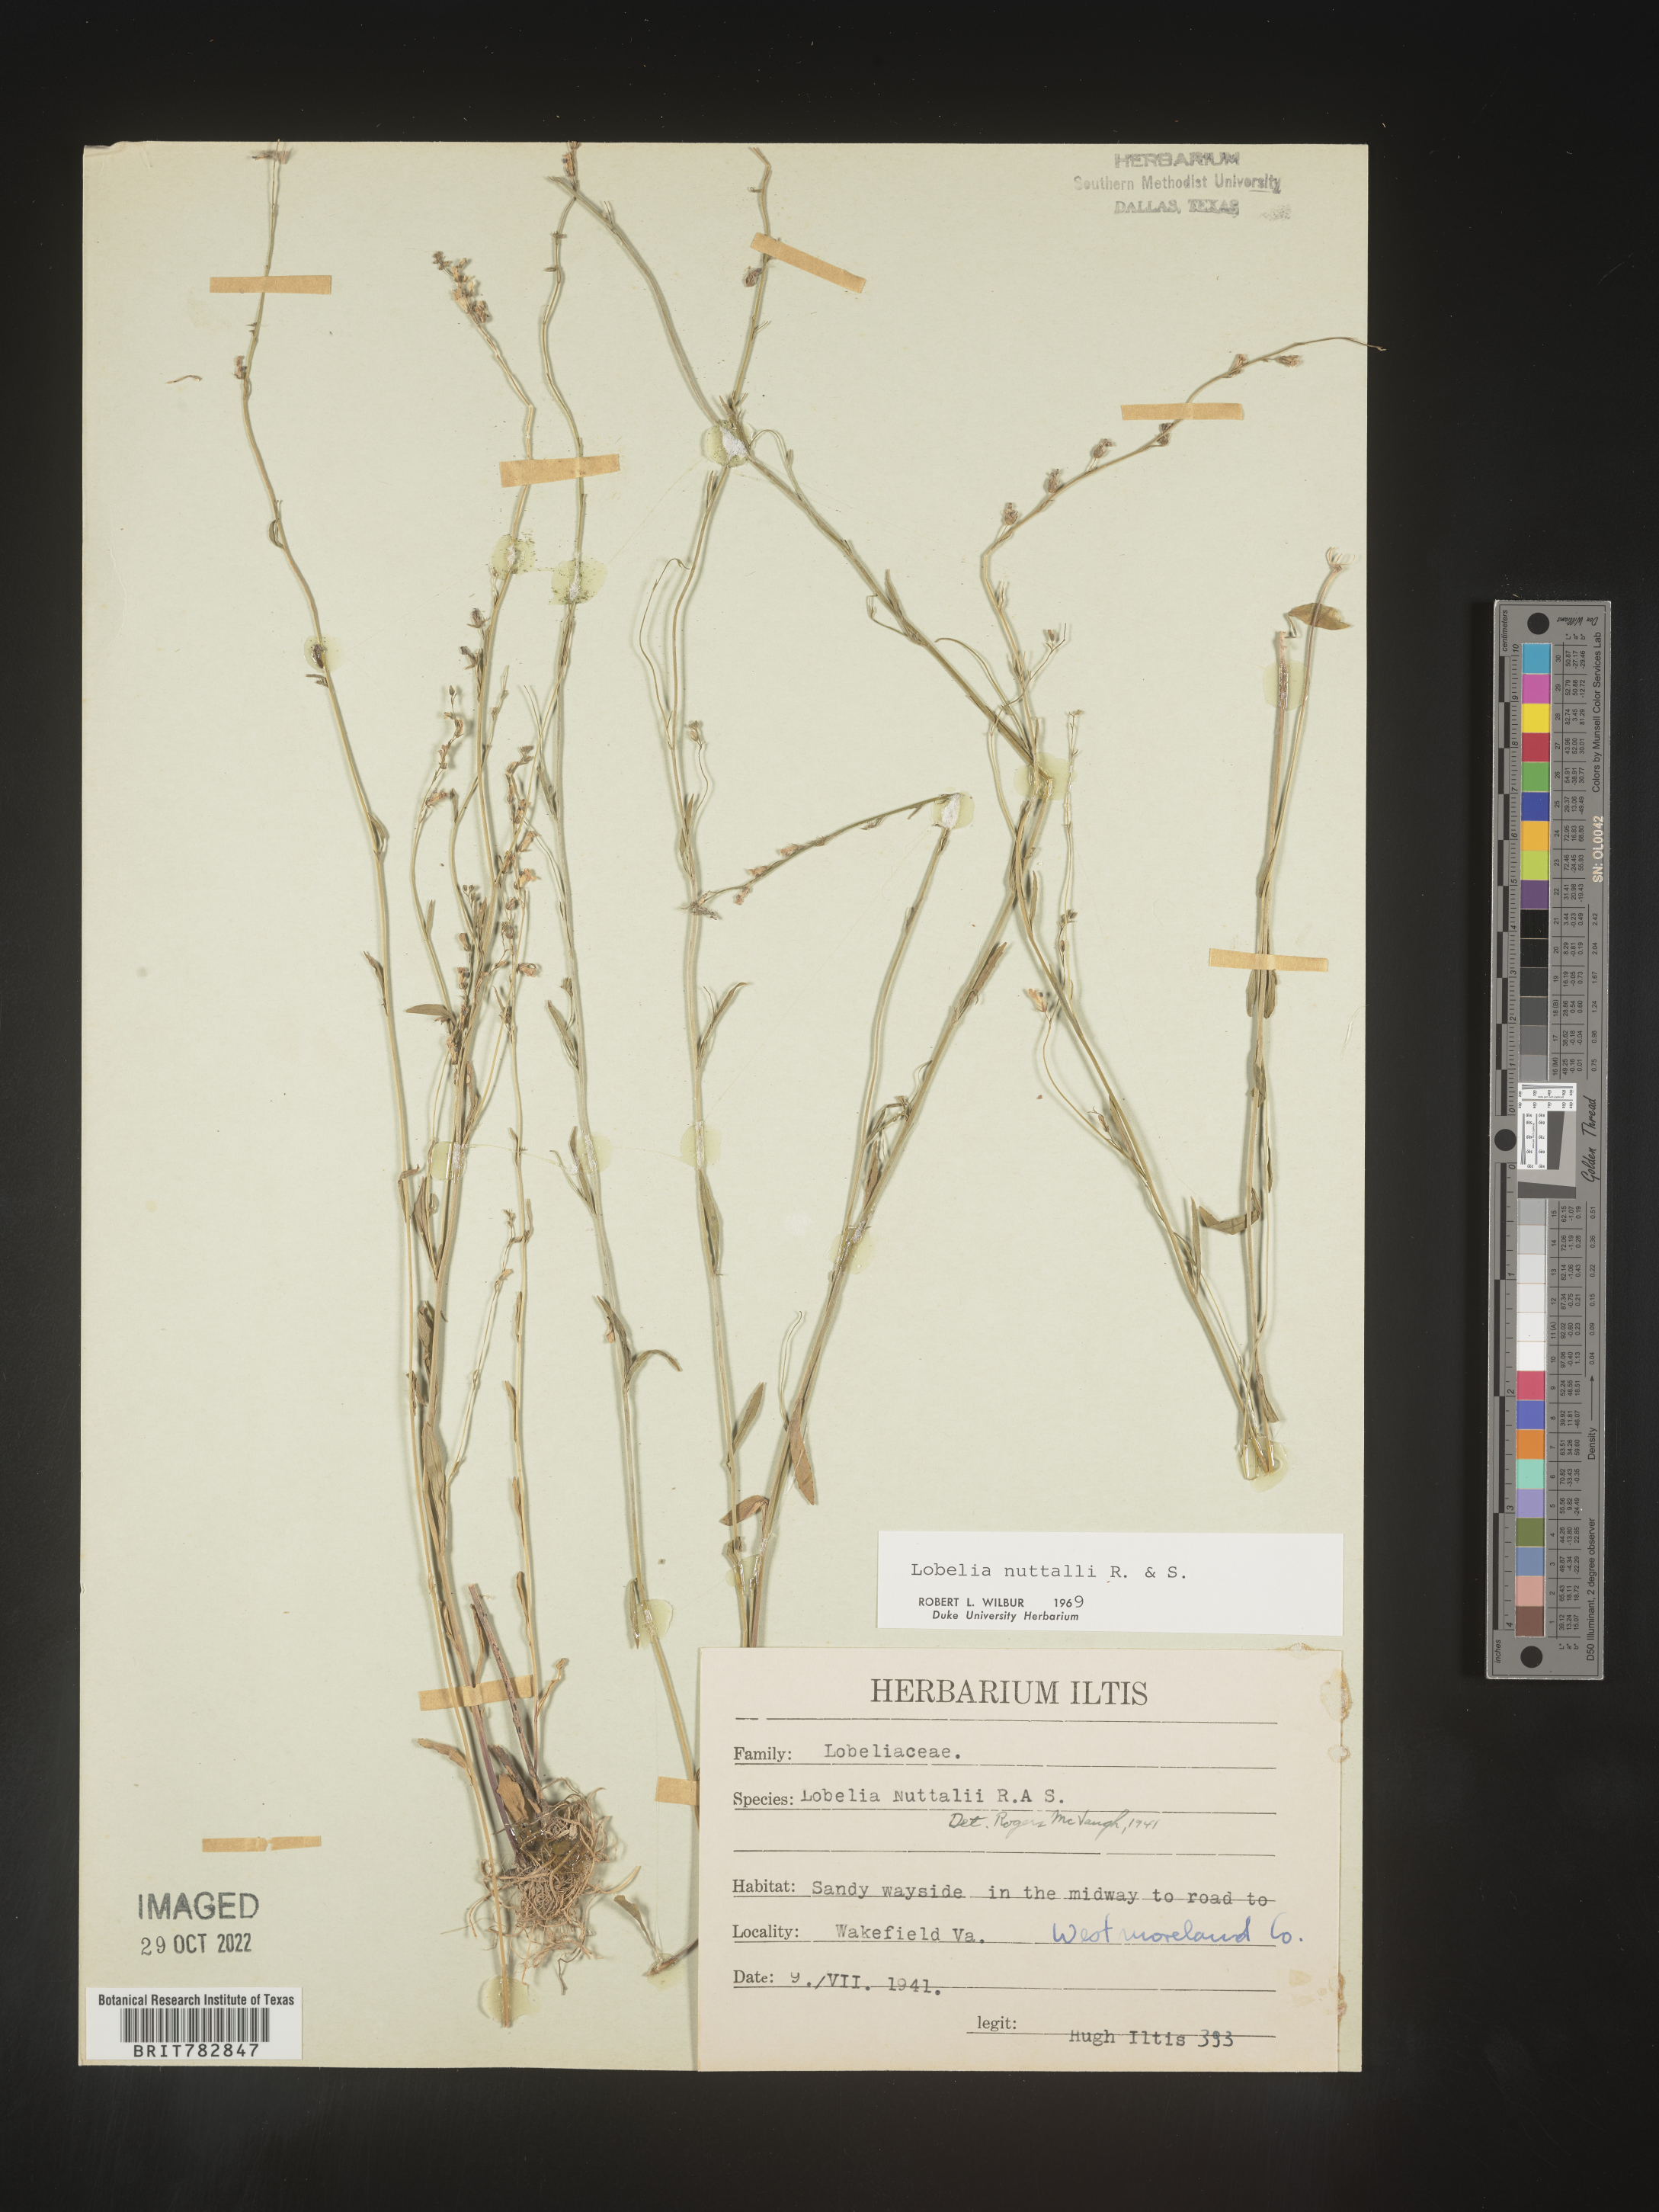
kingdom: Plantae
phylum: Tracheophyta
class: Magnoliopsida
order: Asterales
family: Campanulaceae
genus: Lobelia
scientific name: Lobelia nuttallii
